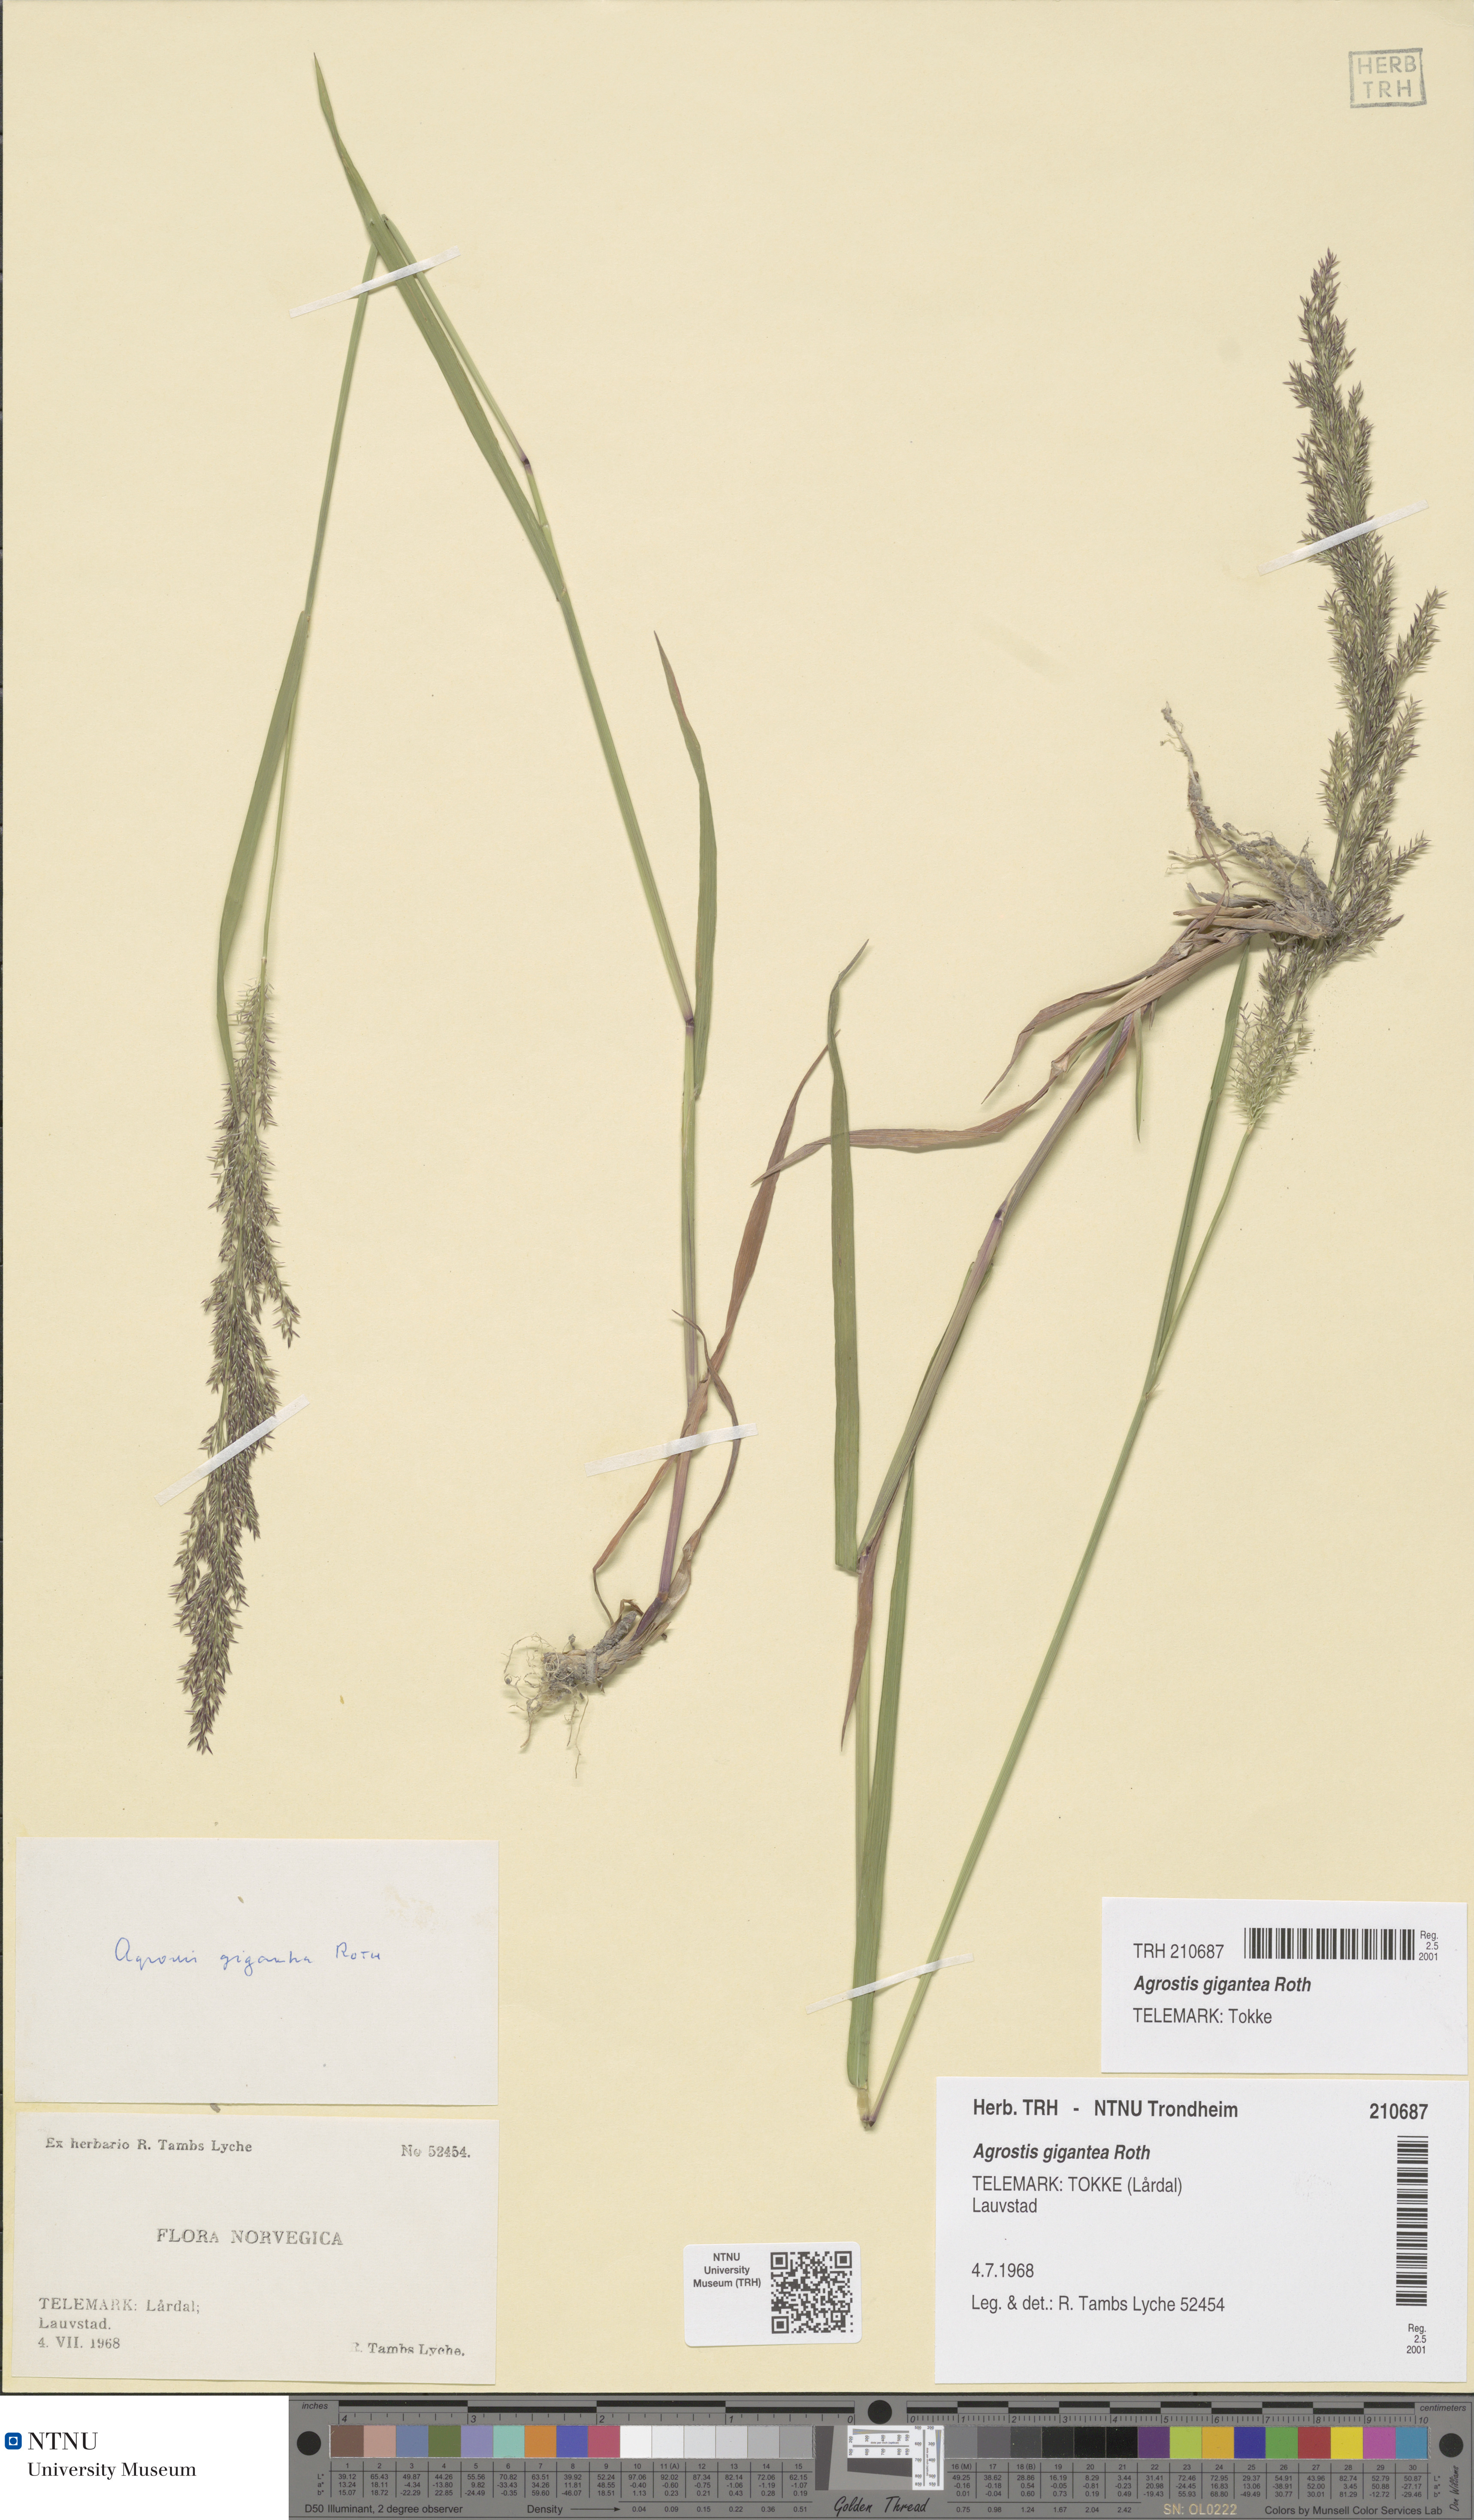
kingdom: Plantae
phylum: Tracheophyta
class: Liliopsida
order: Poales
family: Poaceae
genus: Agrostis
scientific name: Agrostis gigantea
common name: Black bent
